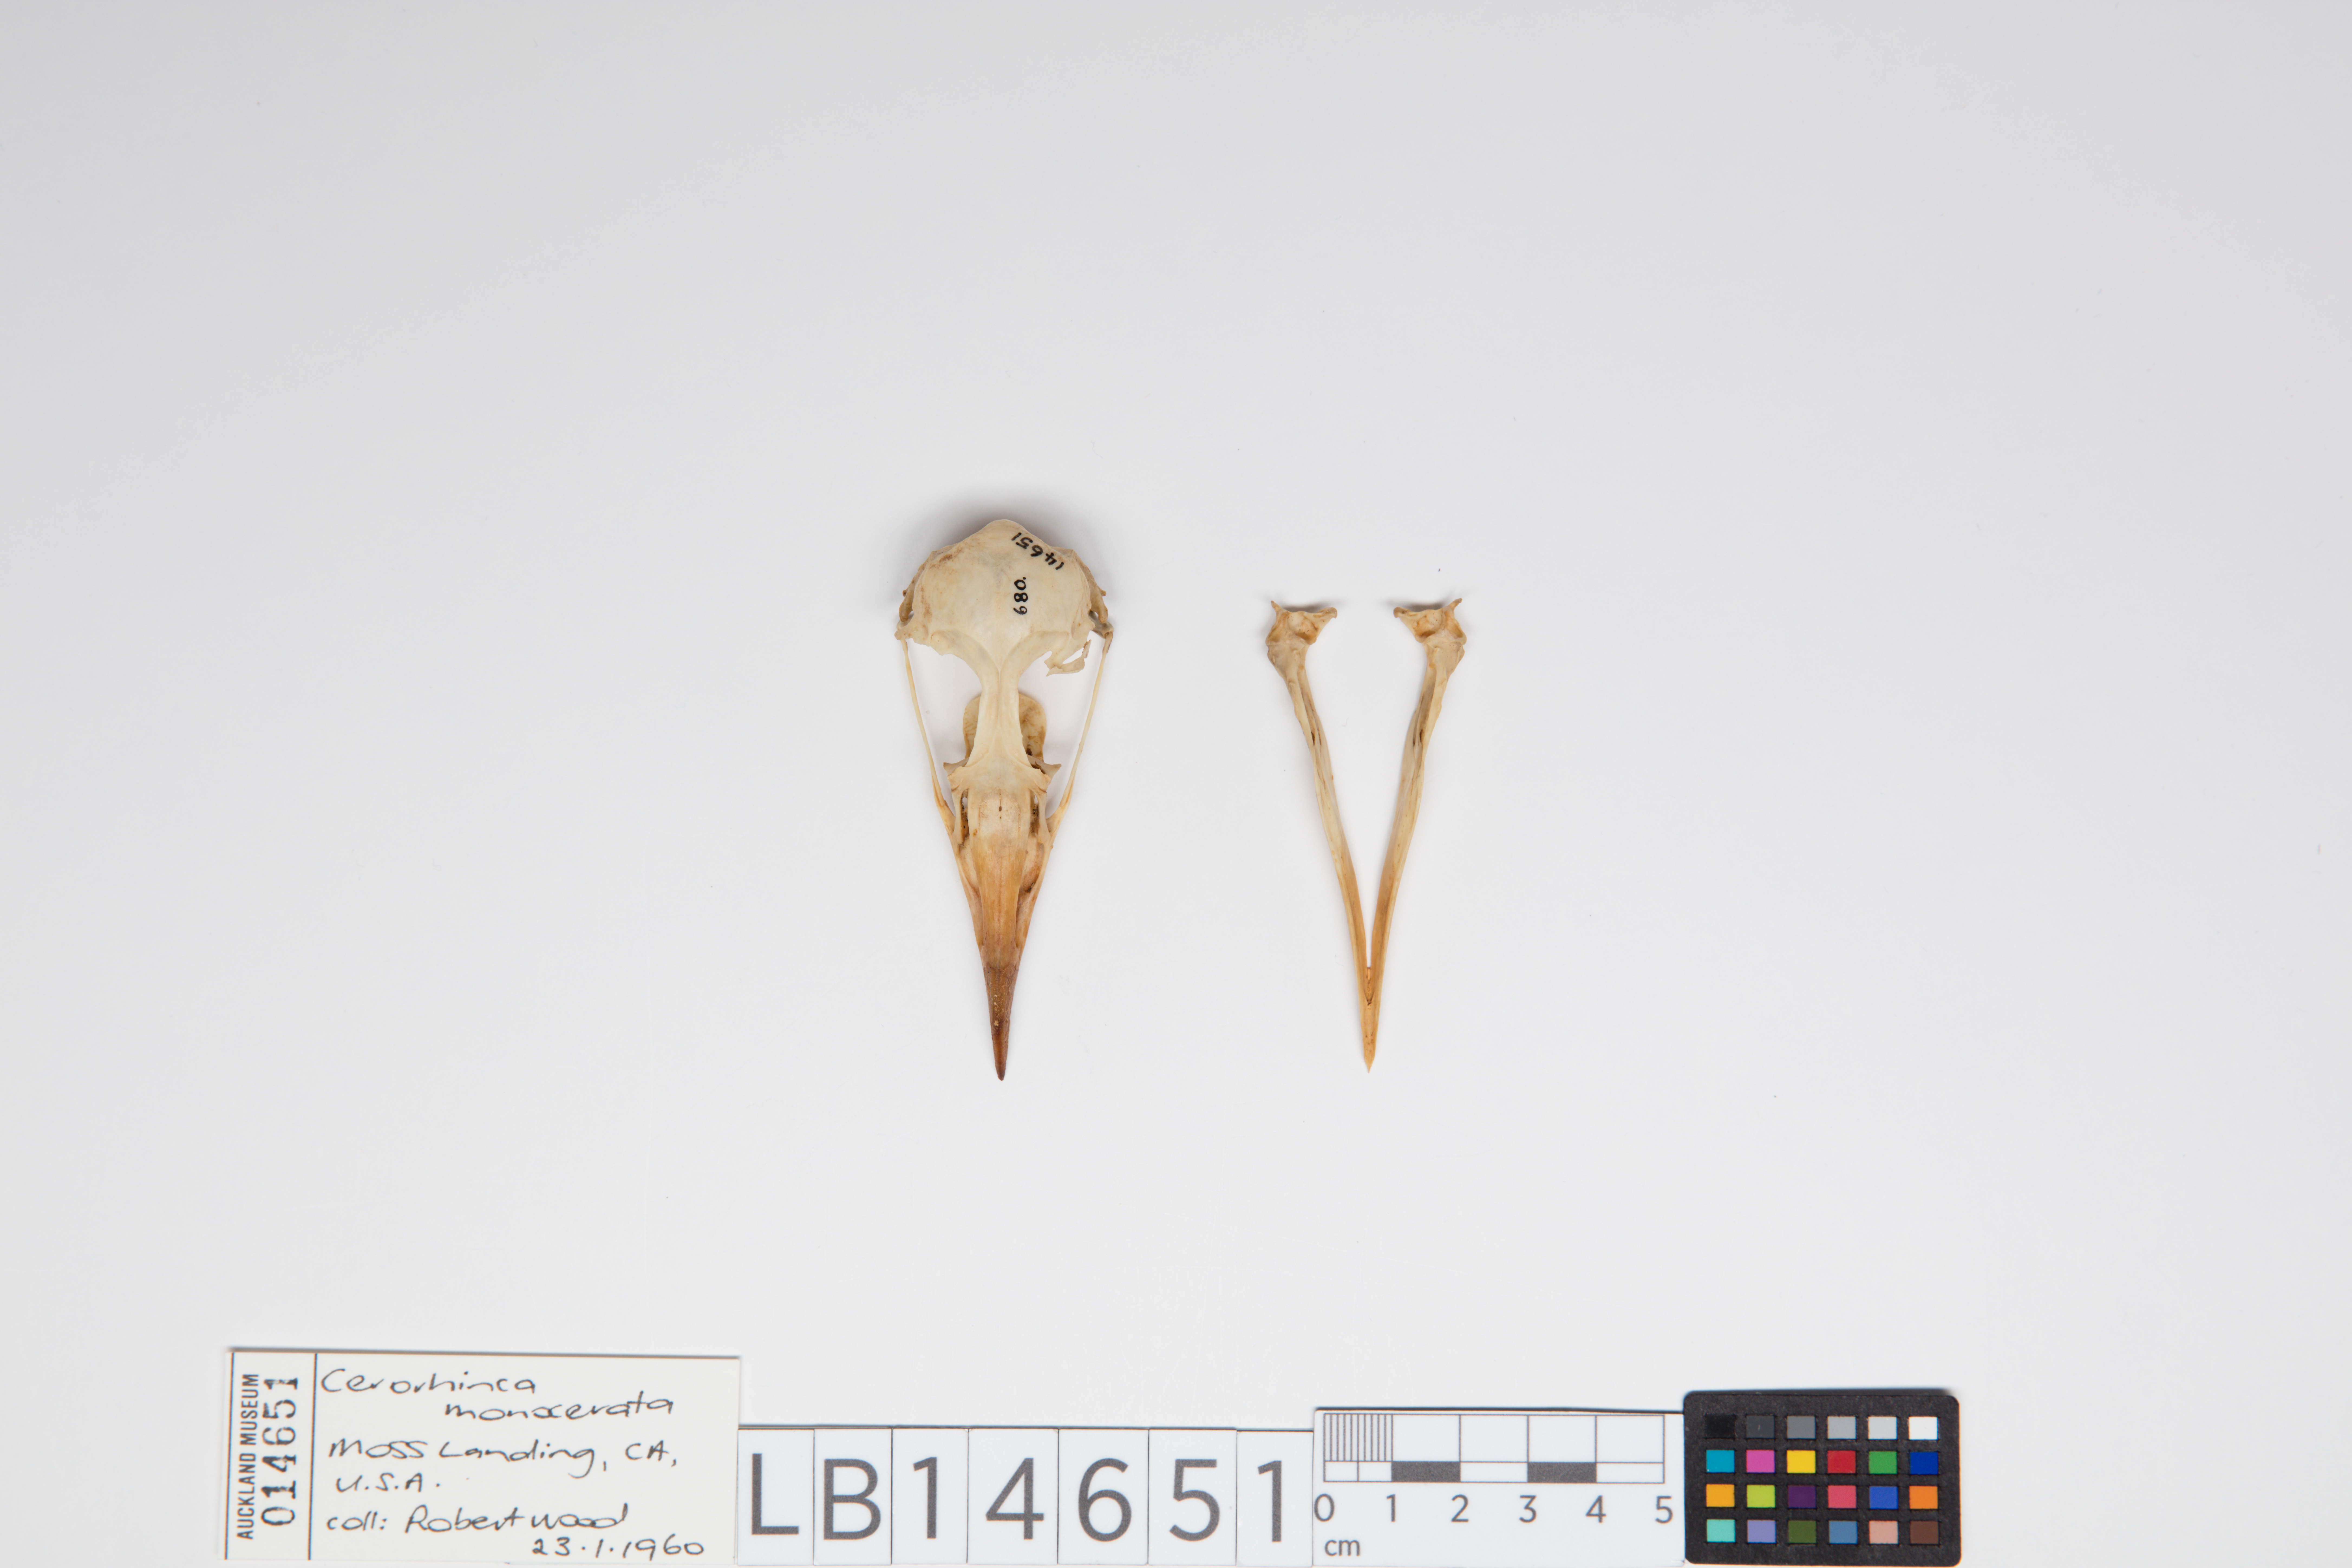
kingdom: Animalia
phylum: Chordata
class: Aves
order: Charadriiformes
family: Alcidae
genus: Cerorhinca
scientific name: Cerorhinca monocerata
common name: Rhinoceros auklet
